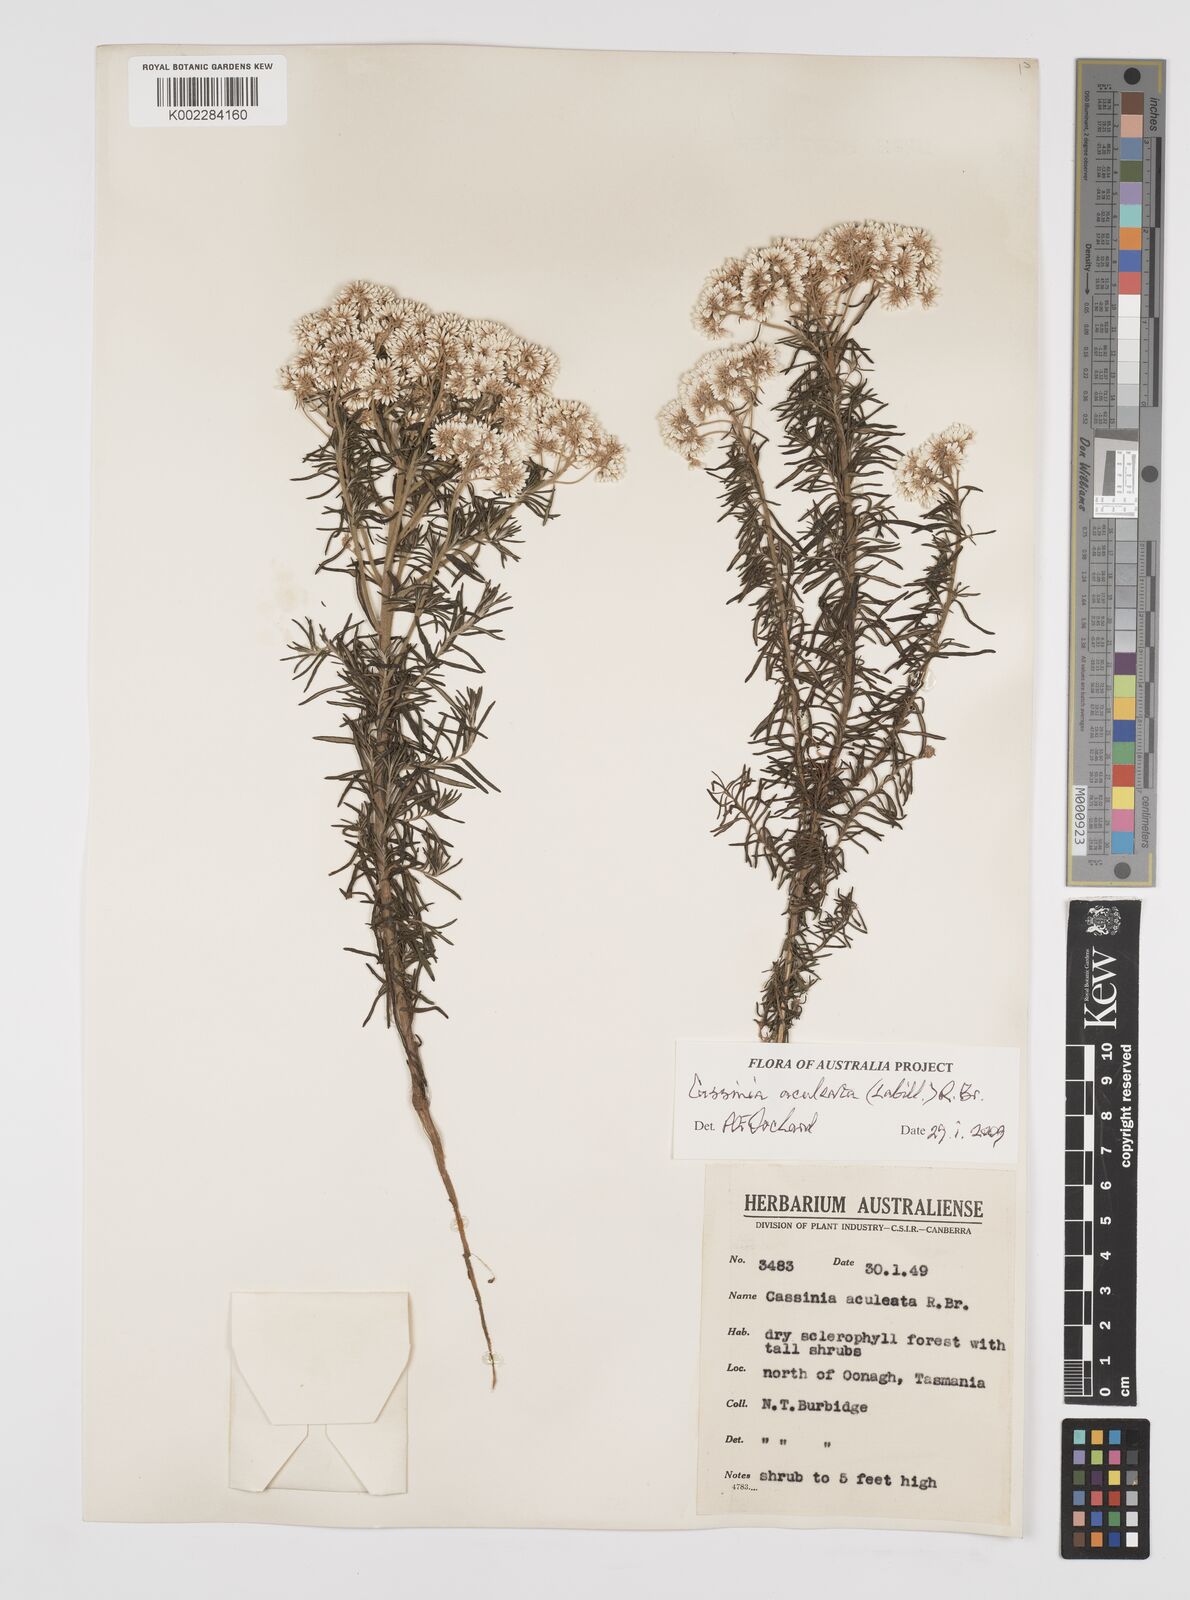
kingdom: Plantae
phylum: Tracheophyta
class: Magnoliopsida
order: Asterales
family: Asteraceae
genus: Cassinia
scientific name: Cassinia aculeata
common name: Australian tauhinu
